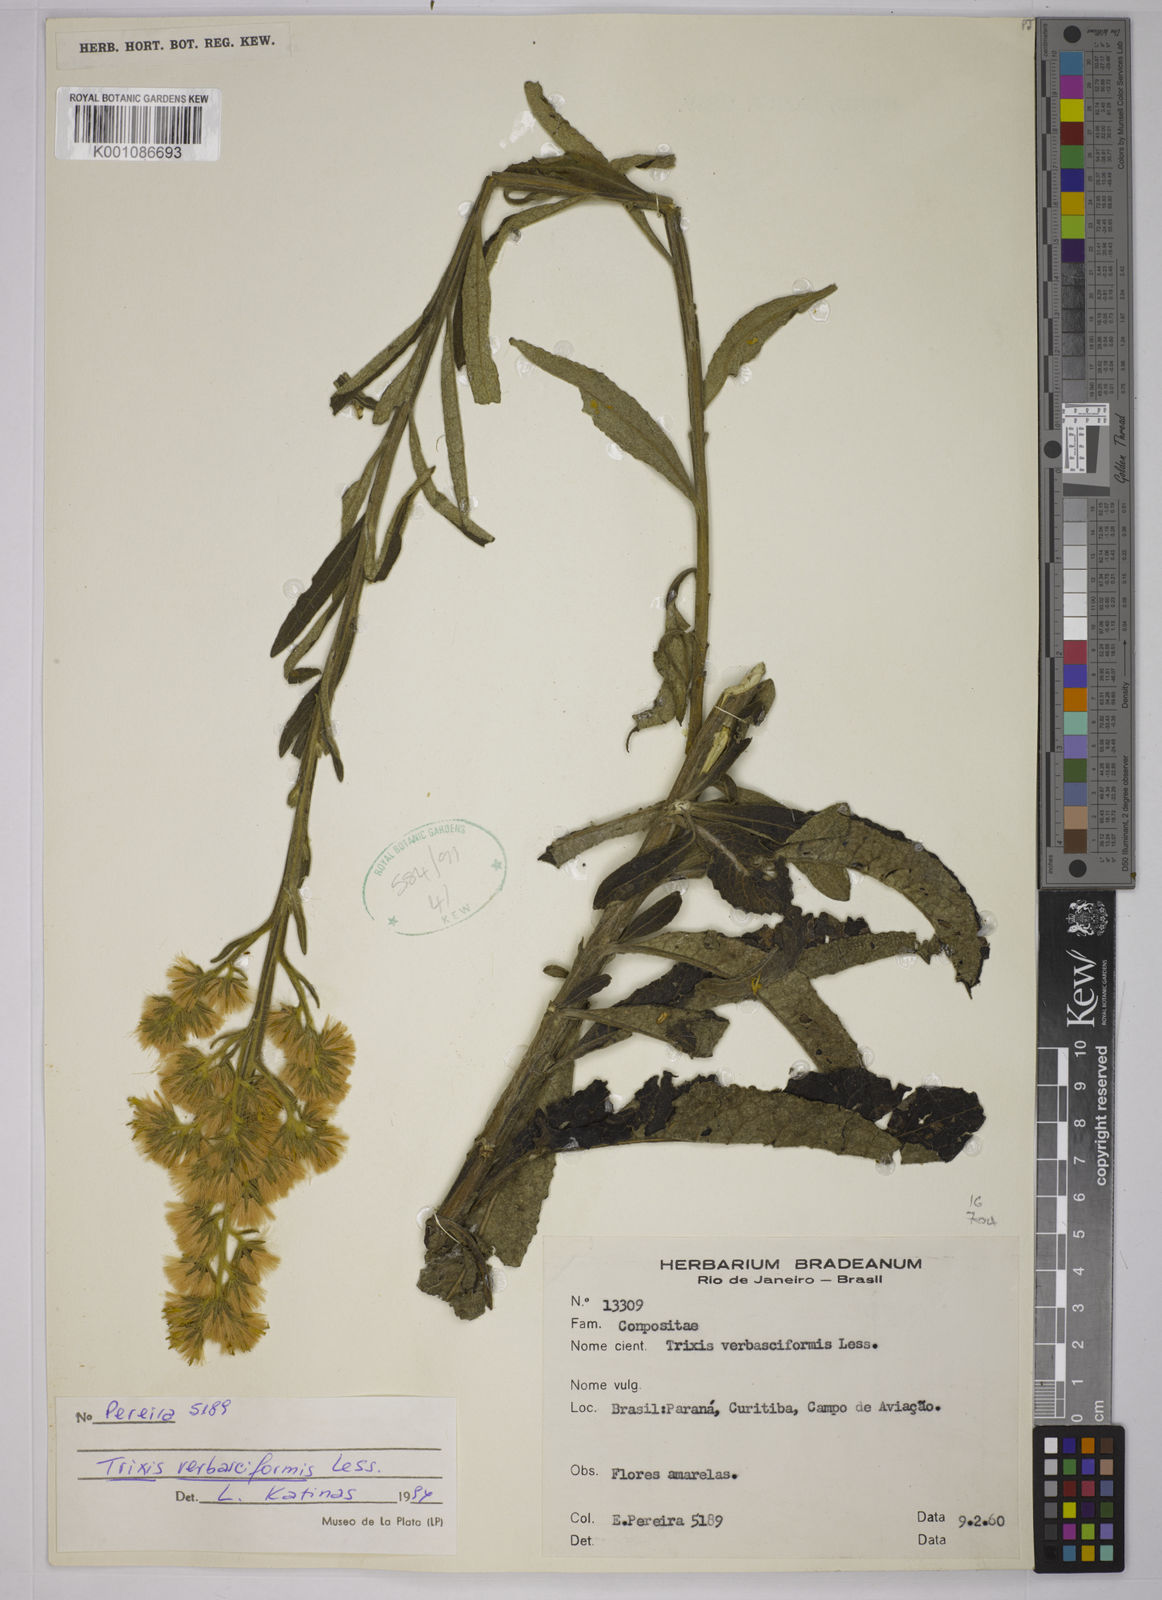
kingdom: Plantae
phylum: Tracheophyta
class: Magnoliopsida
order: Asterales
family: Asteraceae
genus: Trixis
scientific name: Trixis nobilis
